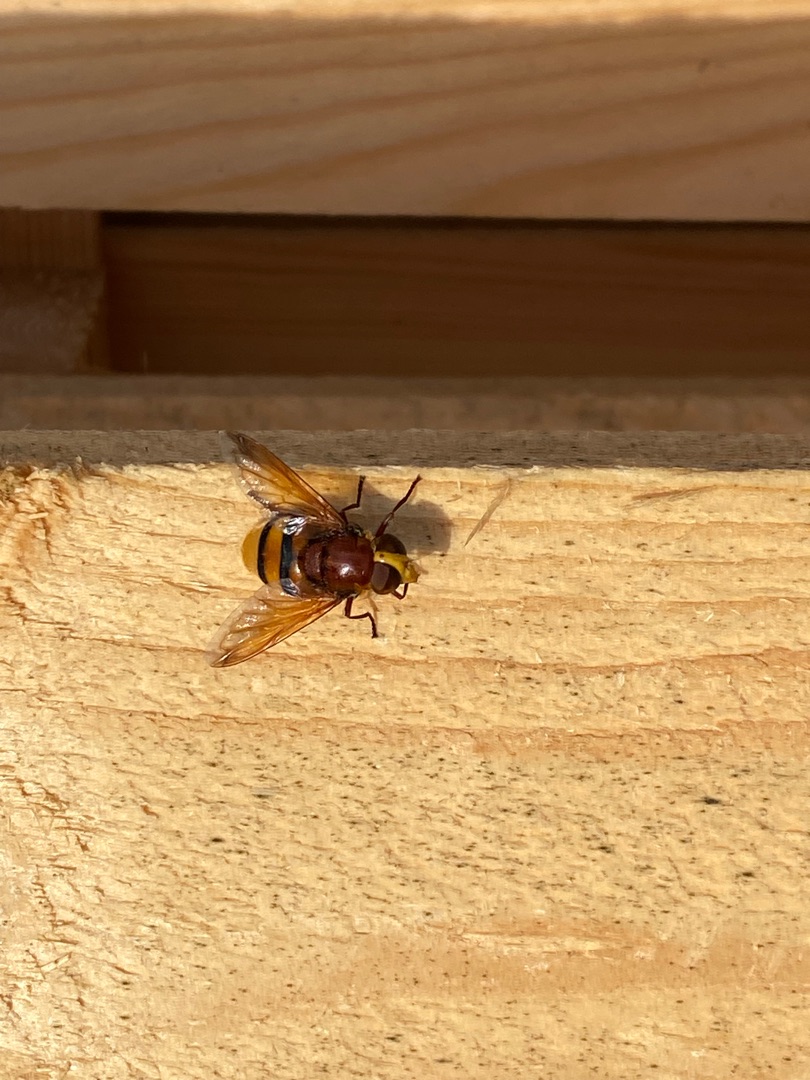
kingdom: Animalia
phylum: Arthropoda
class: Insecta
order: Diptera
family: Syrphidae
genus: Volucella
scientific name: Volucella zonaria
